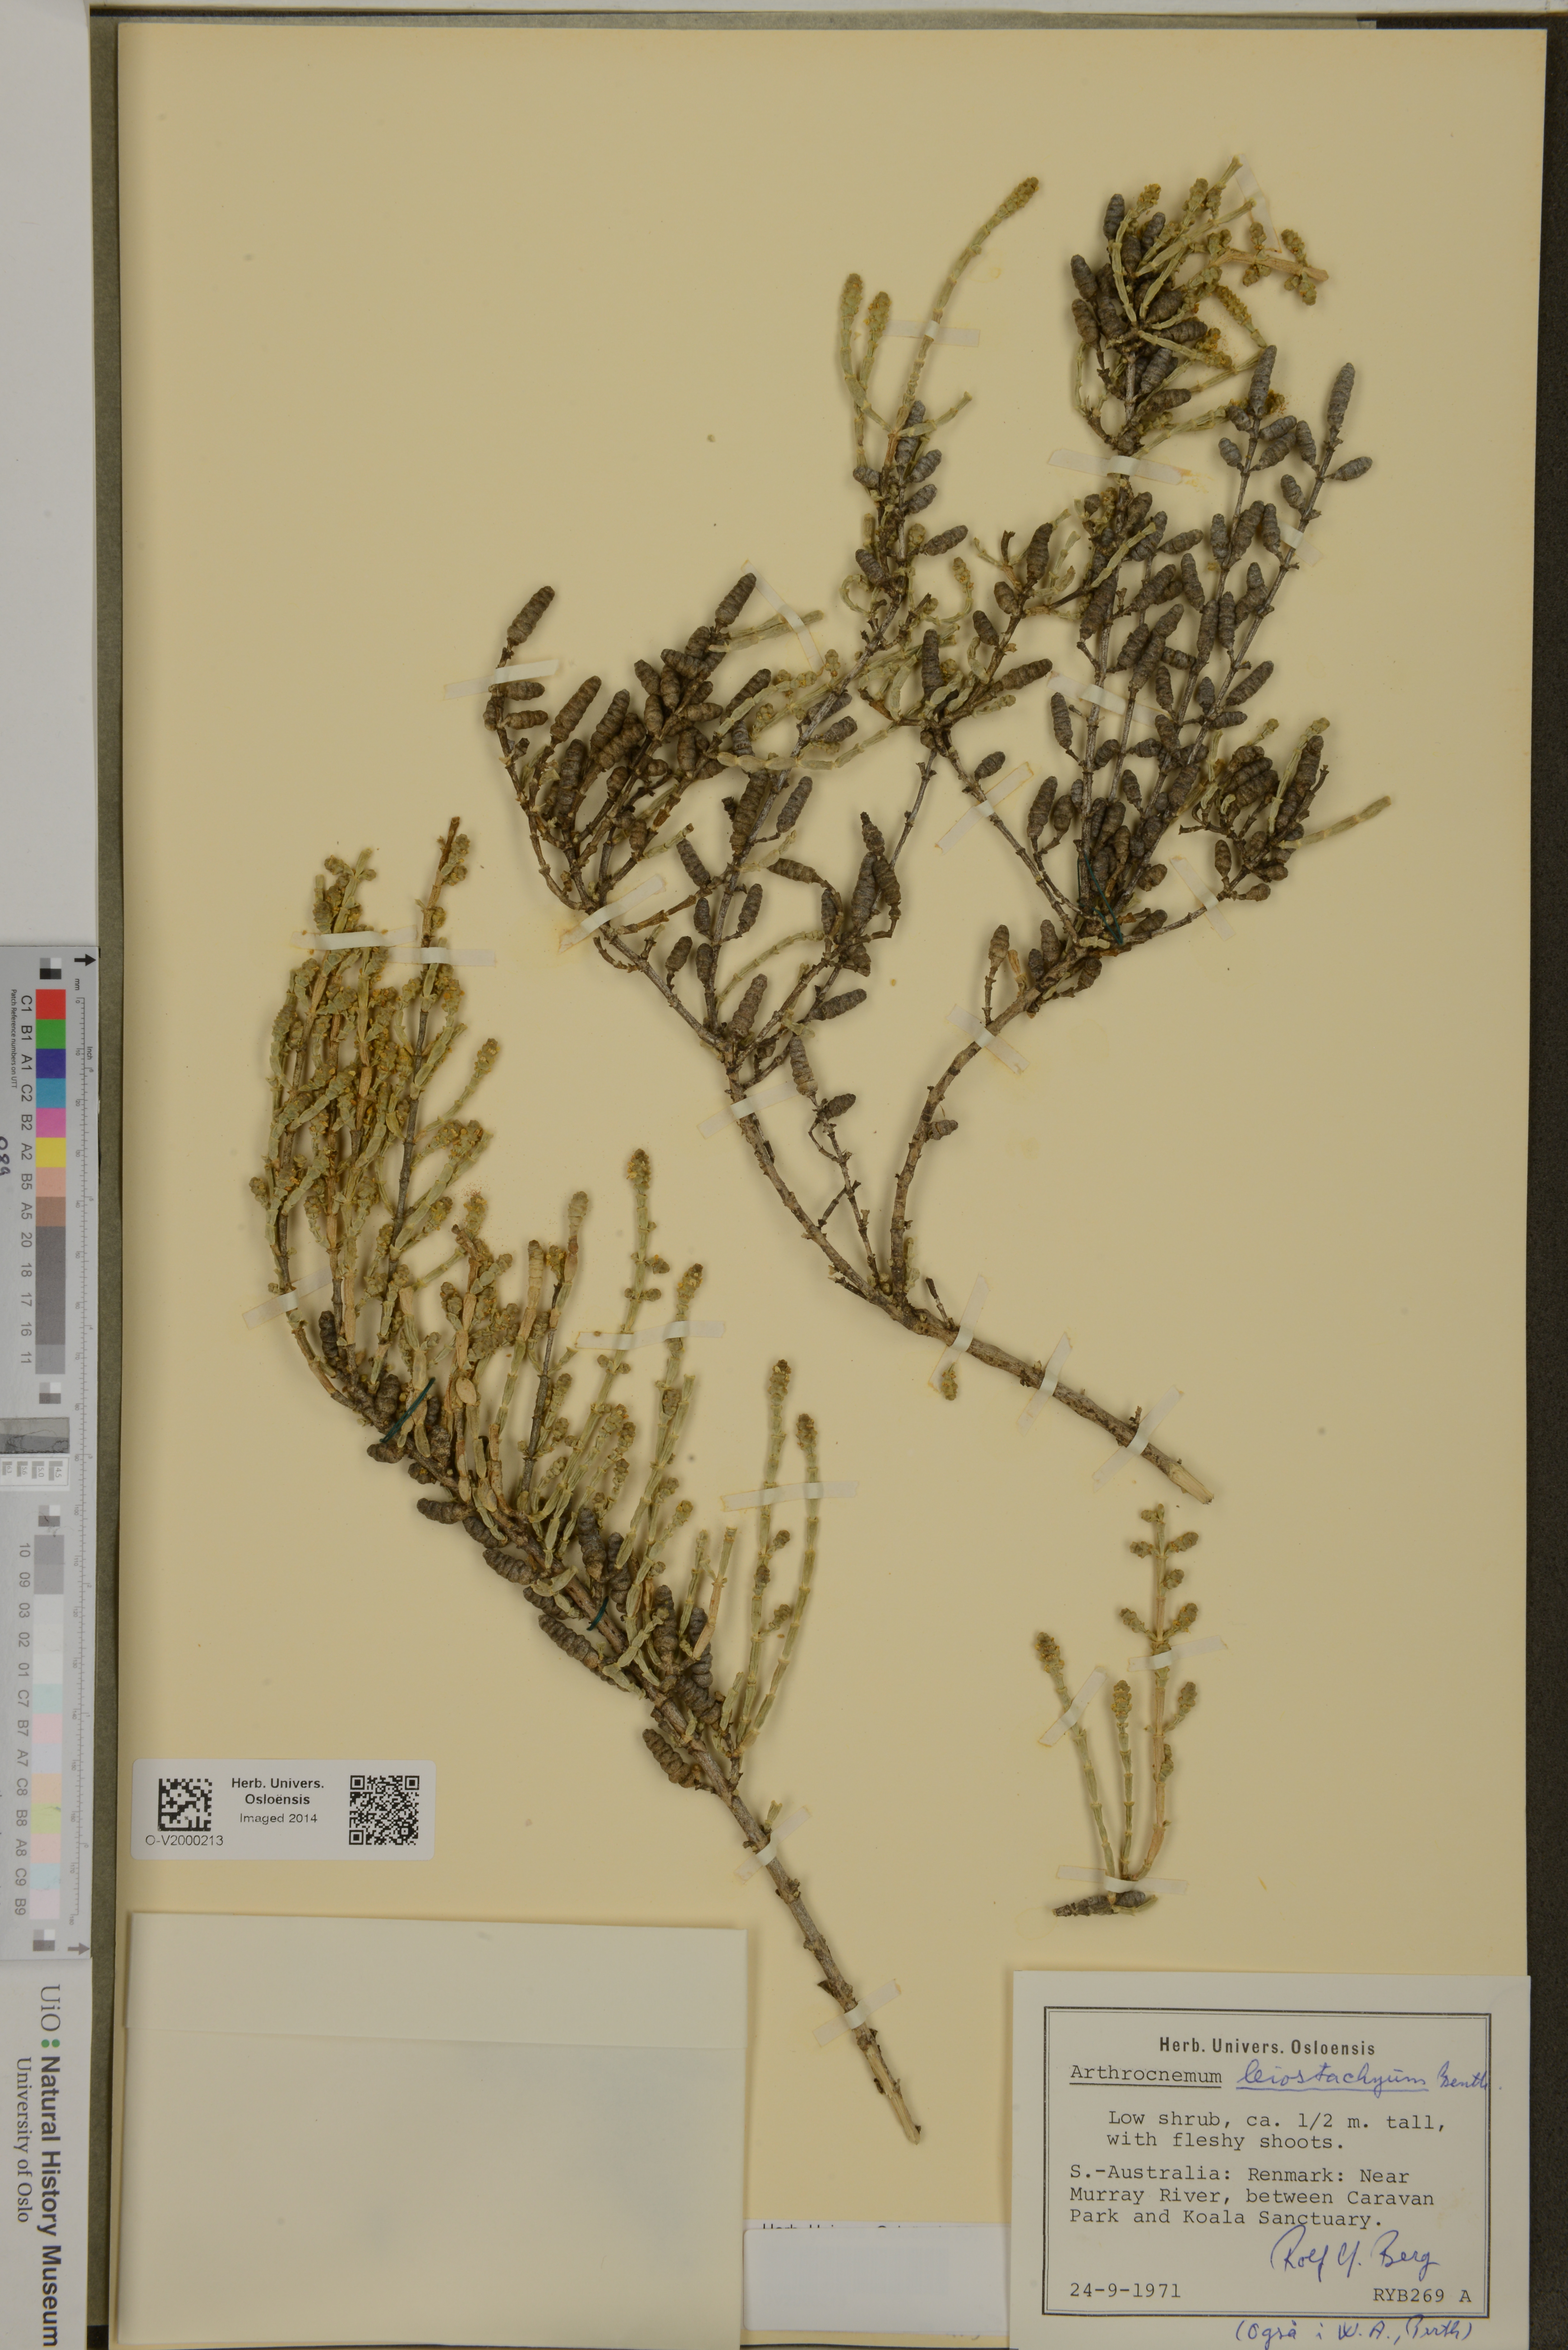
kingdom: Plantae
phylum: Tracheophyta
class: Magnoliopsida
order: Caryophyllales
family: Amaranthaceae
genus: Tecticornia
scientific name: Tecticornia indica
